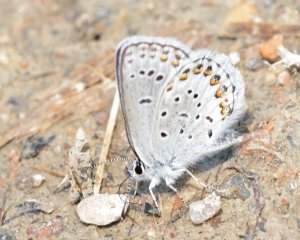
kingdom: Animalia
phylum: Arthropoda
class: Insecta
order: Lepidoptera
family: Lycaenidae
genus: Lycaeides
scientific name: Lycaeides idas
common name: Northern Blue
